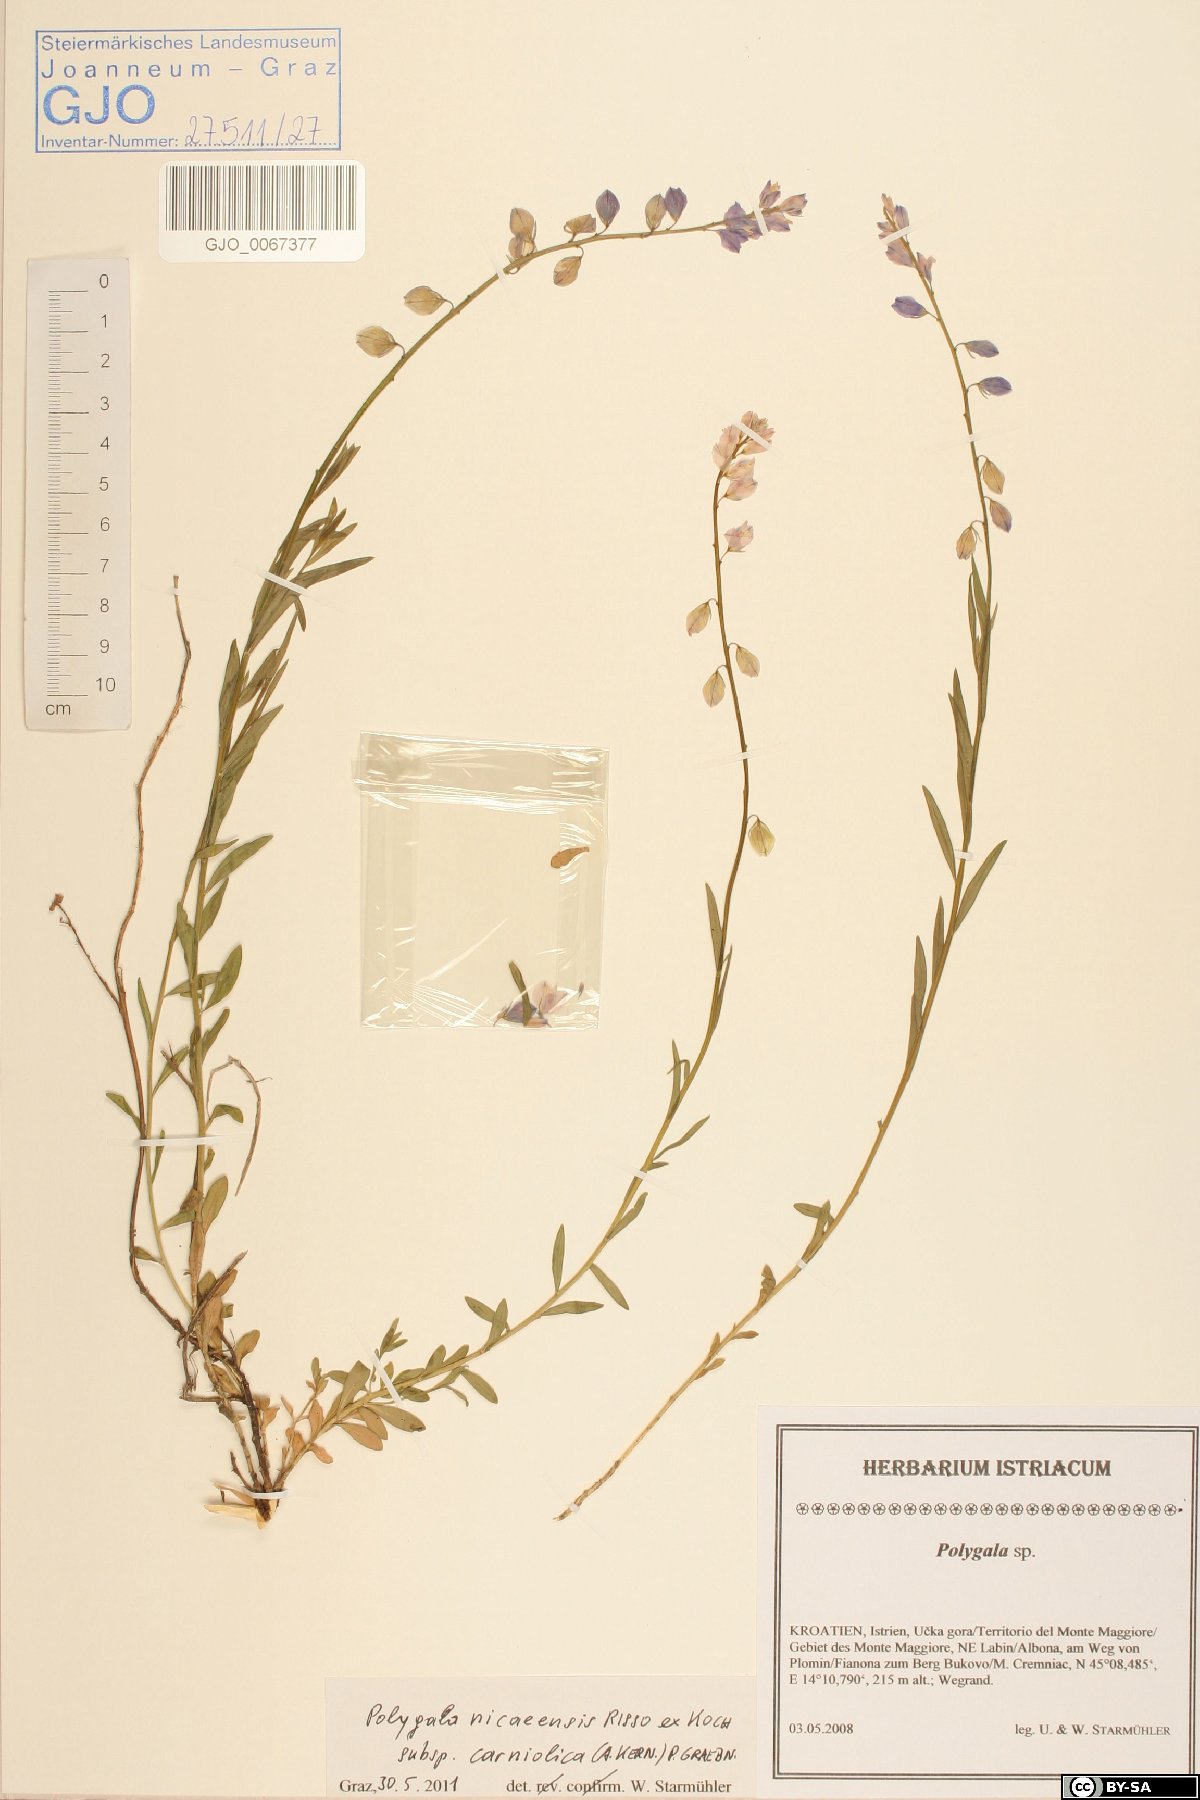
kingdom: Plantae
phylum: Tracheophyta
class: Magnoliopsida
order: Fabales
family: Polygalaceae
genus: Polygala
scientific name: Polygala
